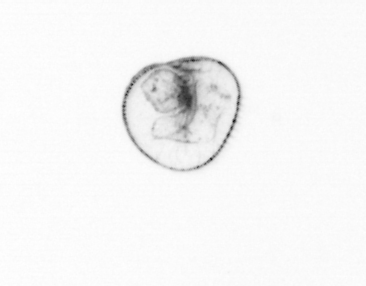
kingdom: Chromista
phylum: Myzozoa
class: Dinophyceae
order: Noctilucales
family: Noctilucaceae
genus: Noctiluca
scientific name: Noctiluca scintillans
